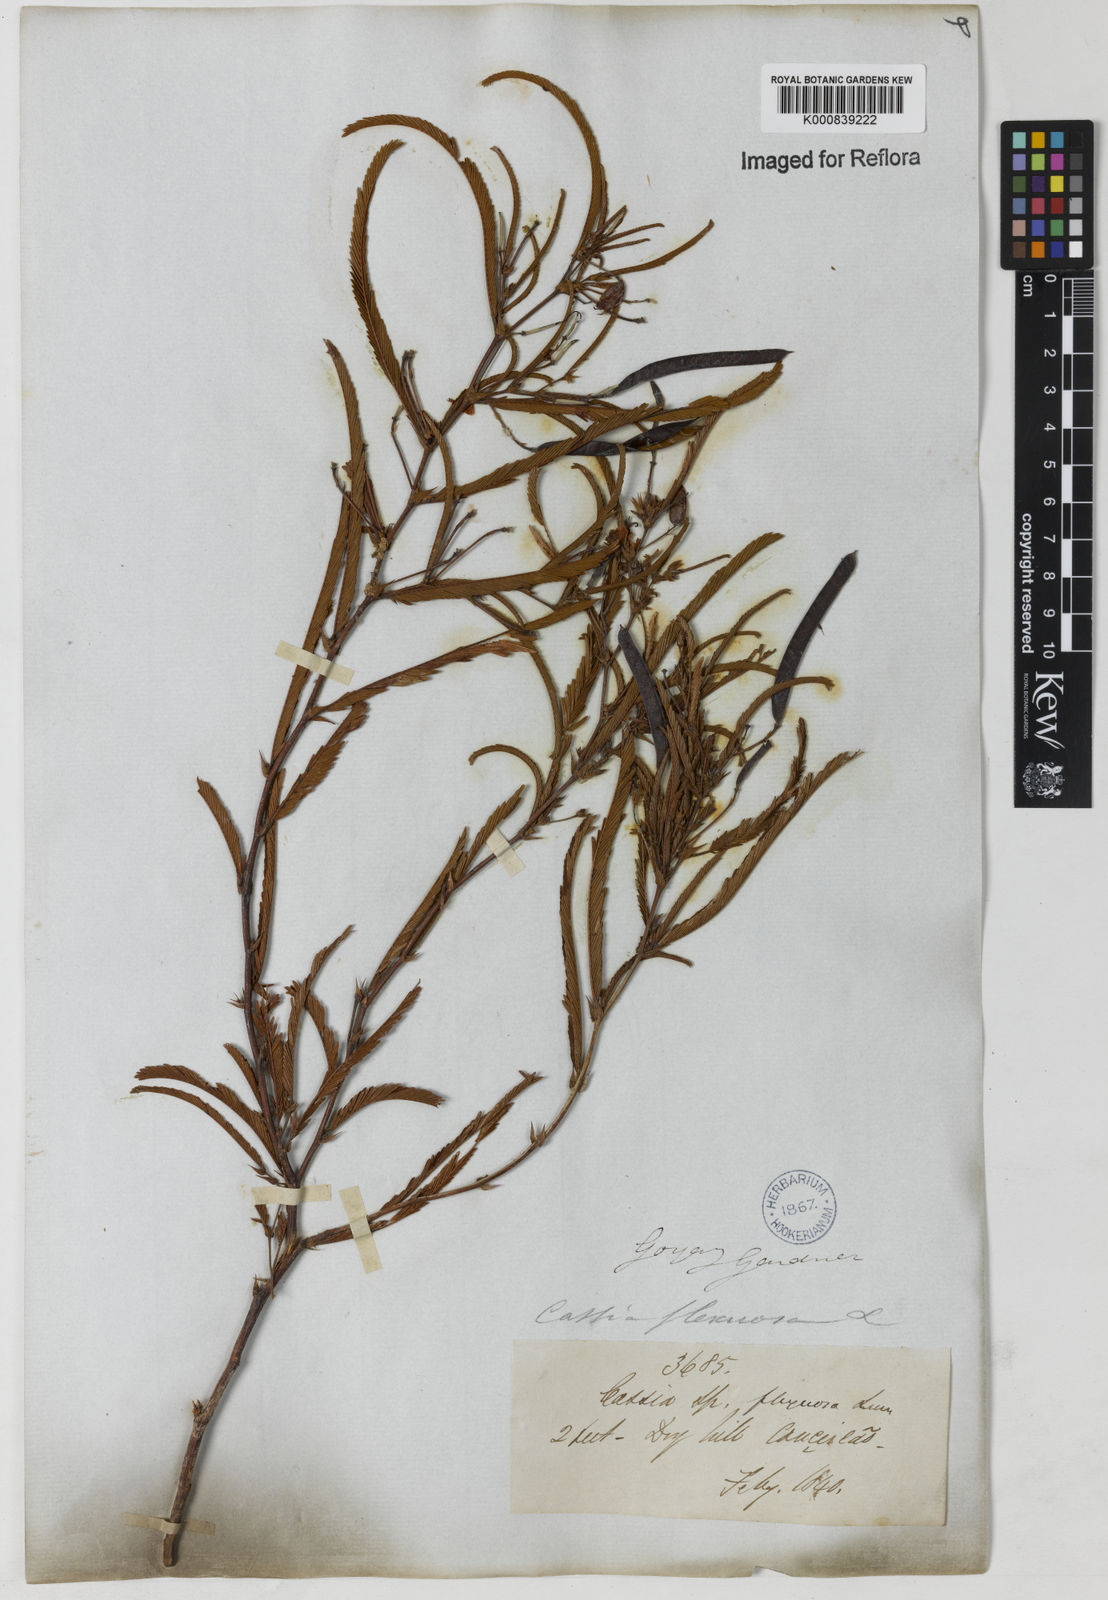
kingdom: Plantae
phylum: Tracheophyta
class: Magnoliopsida
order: Fabales
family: Fabaceae
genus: Chamaecrista
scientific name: Chamaecrista flexuosa
